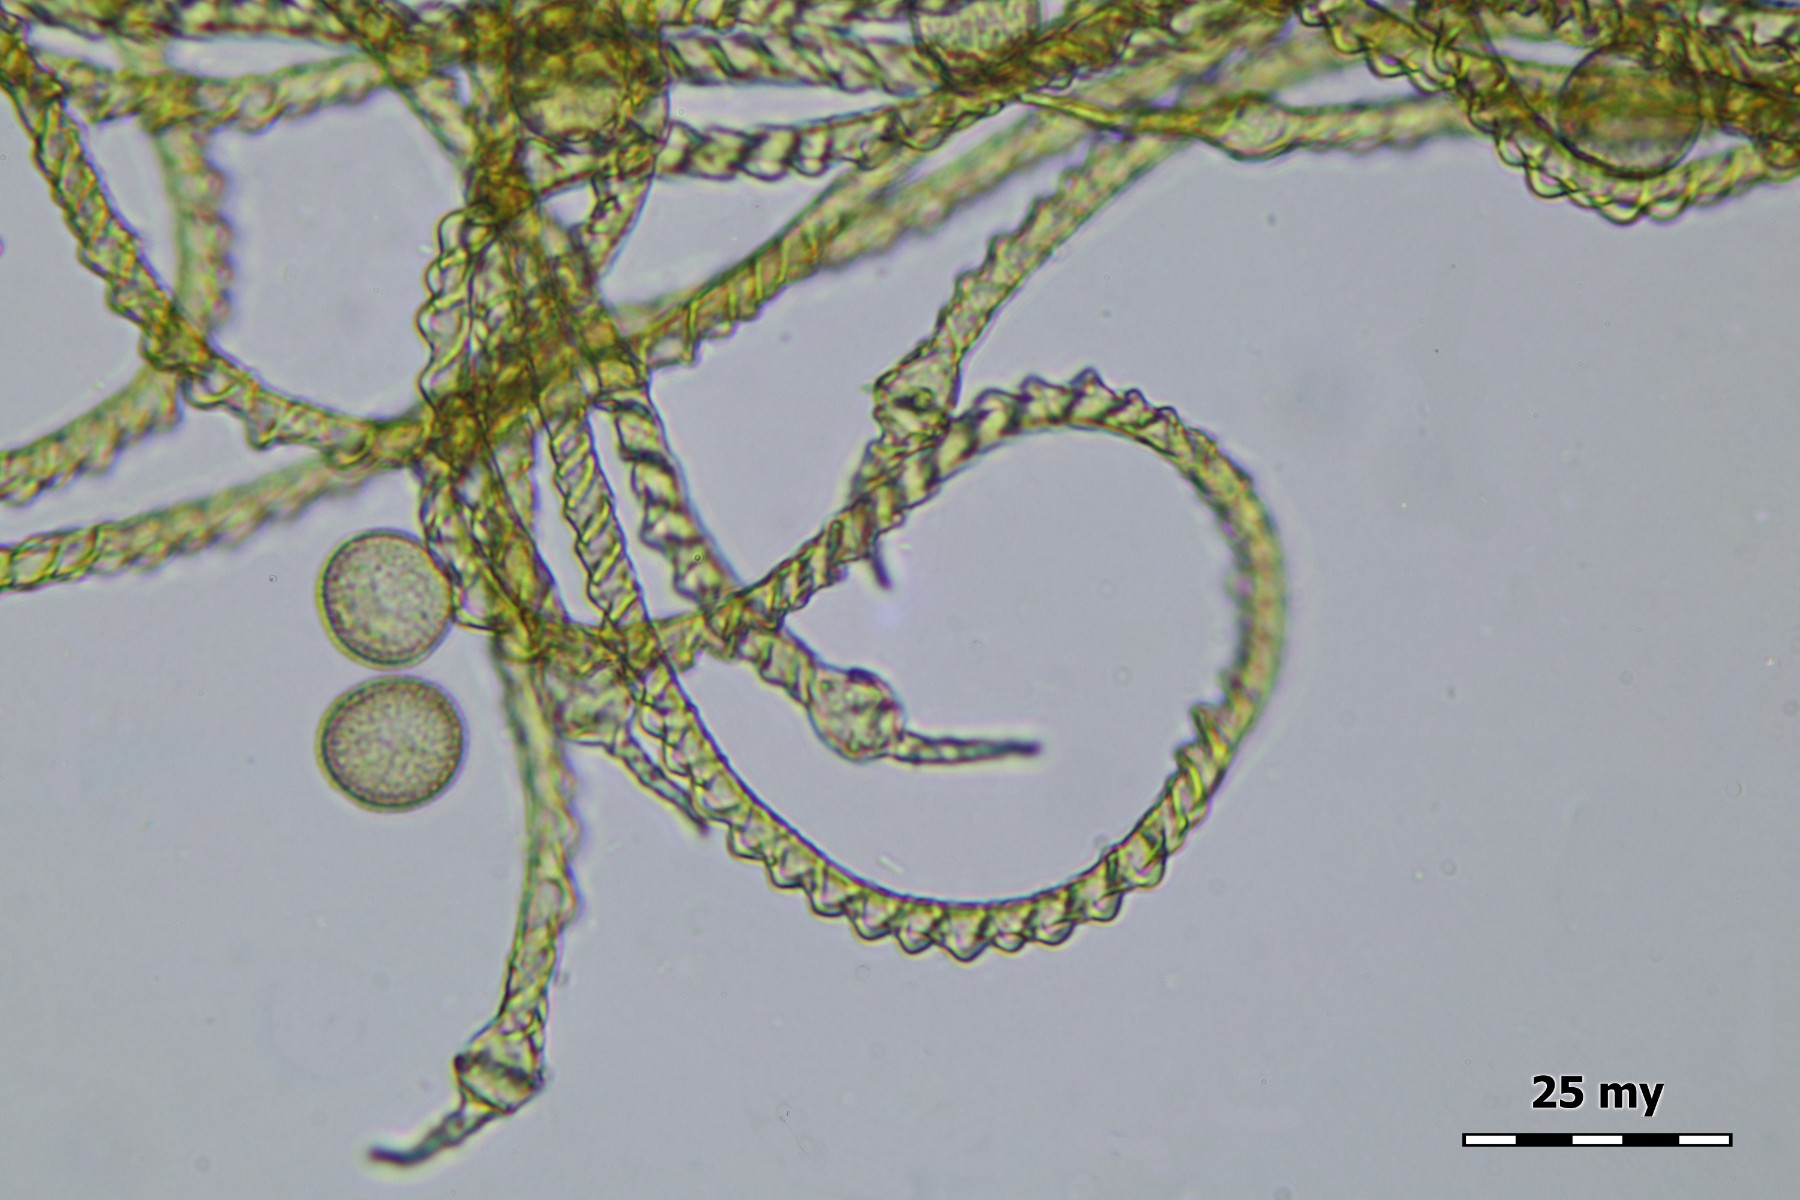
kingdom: Protozoa
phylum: Mycetozoa
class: Myxomycetes
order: Trichiales
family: Trichiaceae
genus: Trichia
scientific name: Trichia varia
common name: foranderlig hårbold
